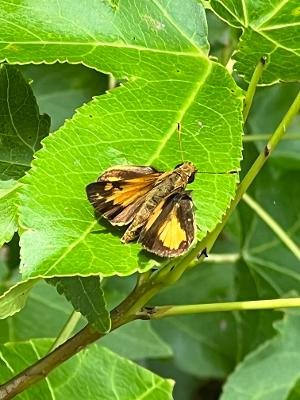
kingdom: Animalia
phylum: Arthropoda
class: Insecta
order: Lepidoptera
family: Hesperiidae
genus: Lon
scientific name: Lon zabulon
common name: Zabulon Skipper
